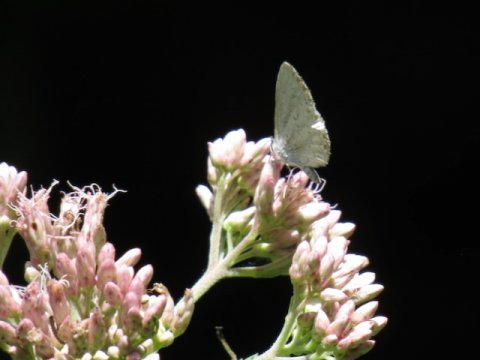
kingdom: Animalia
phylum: Arthropoda
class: Insecta
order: Lepidoptera
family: Lycaenidae
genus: Cyaniris
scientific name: Cyaniris neglecta
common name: Summer Azure
